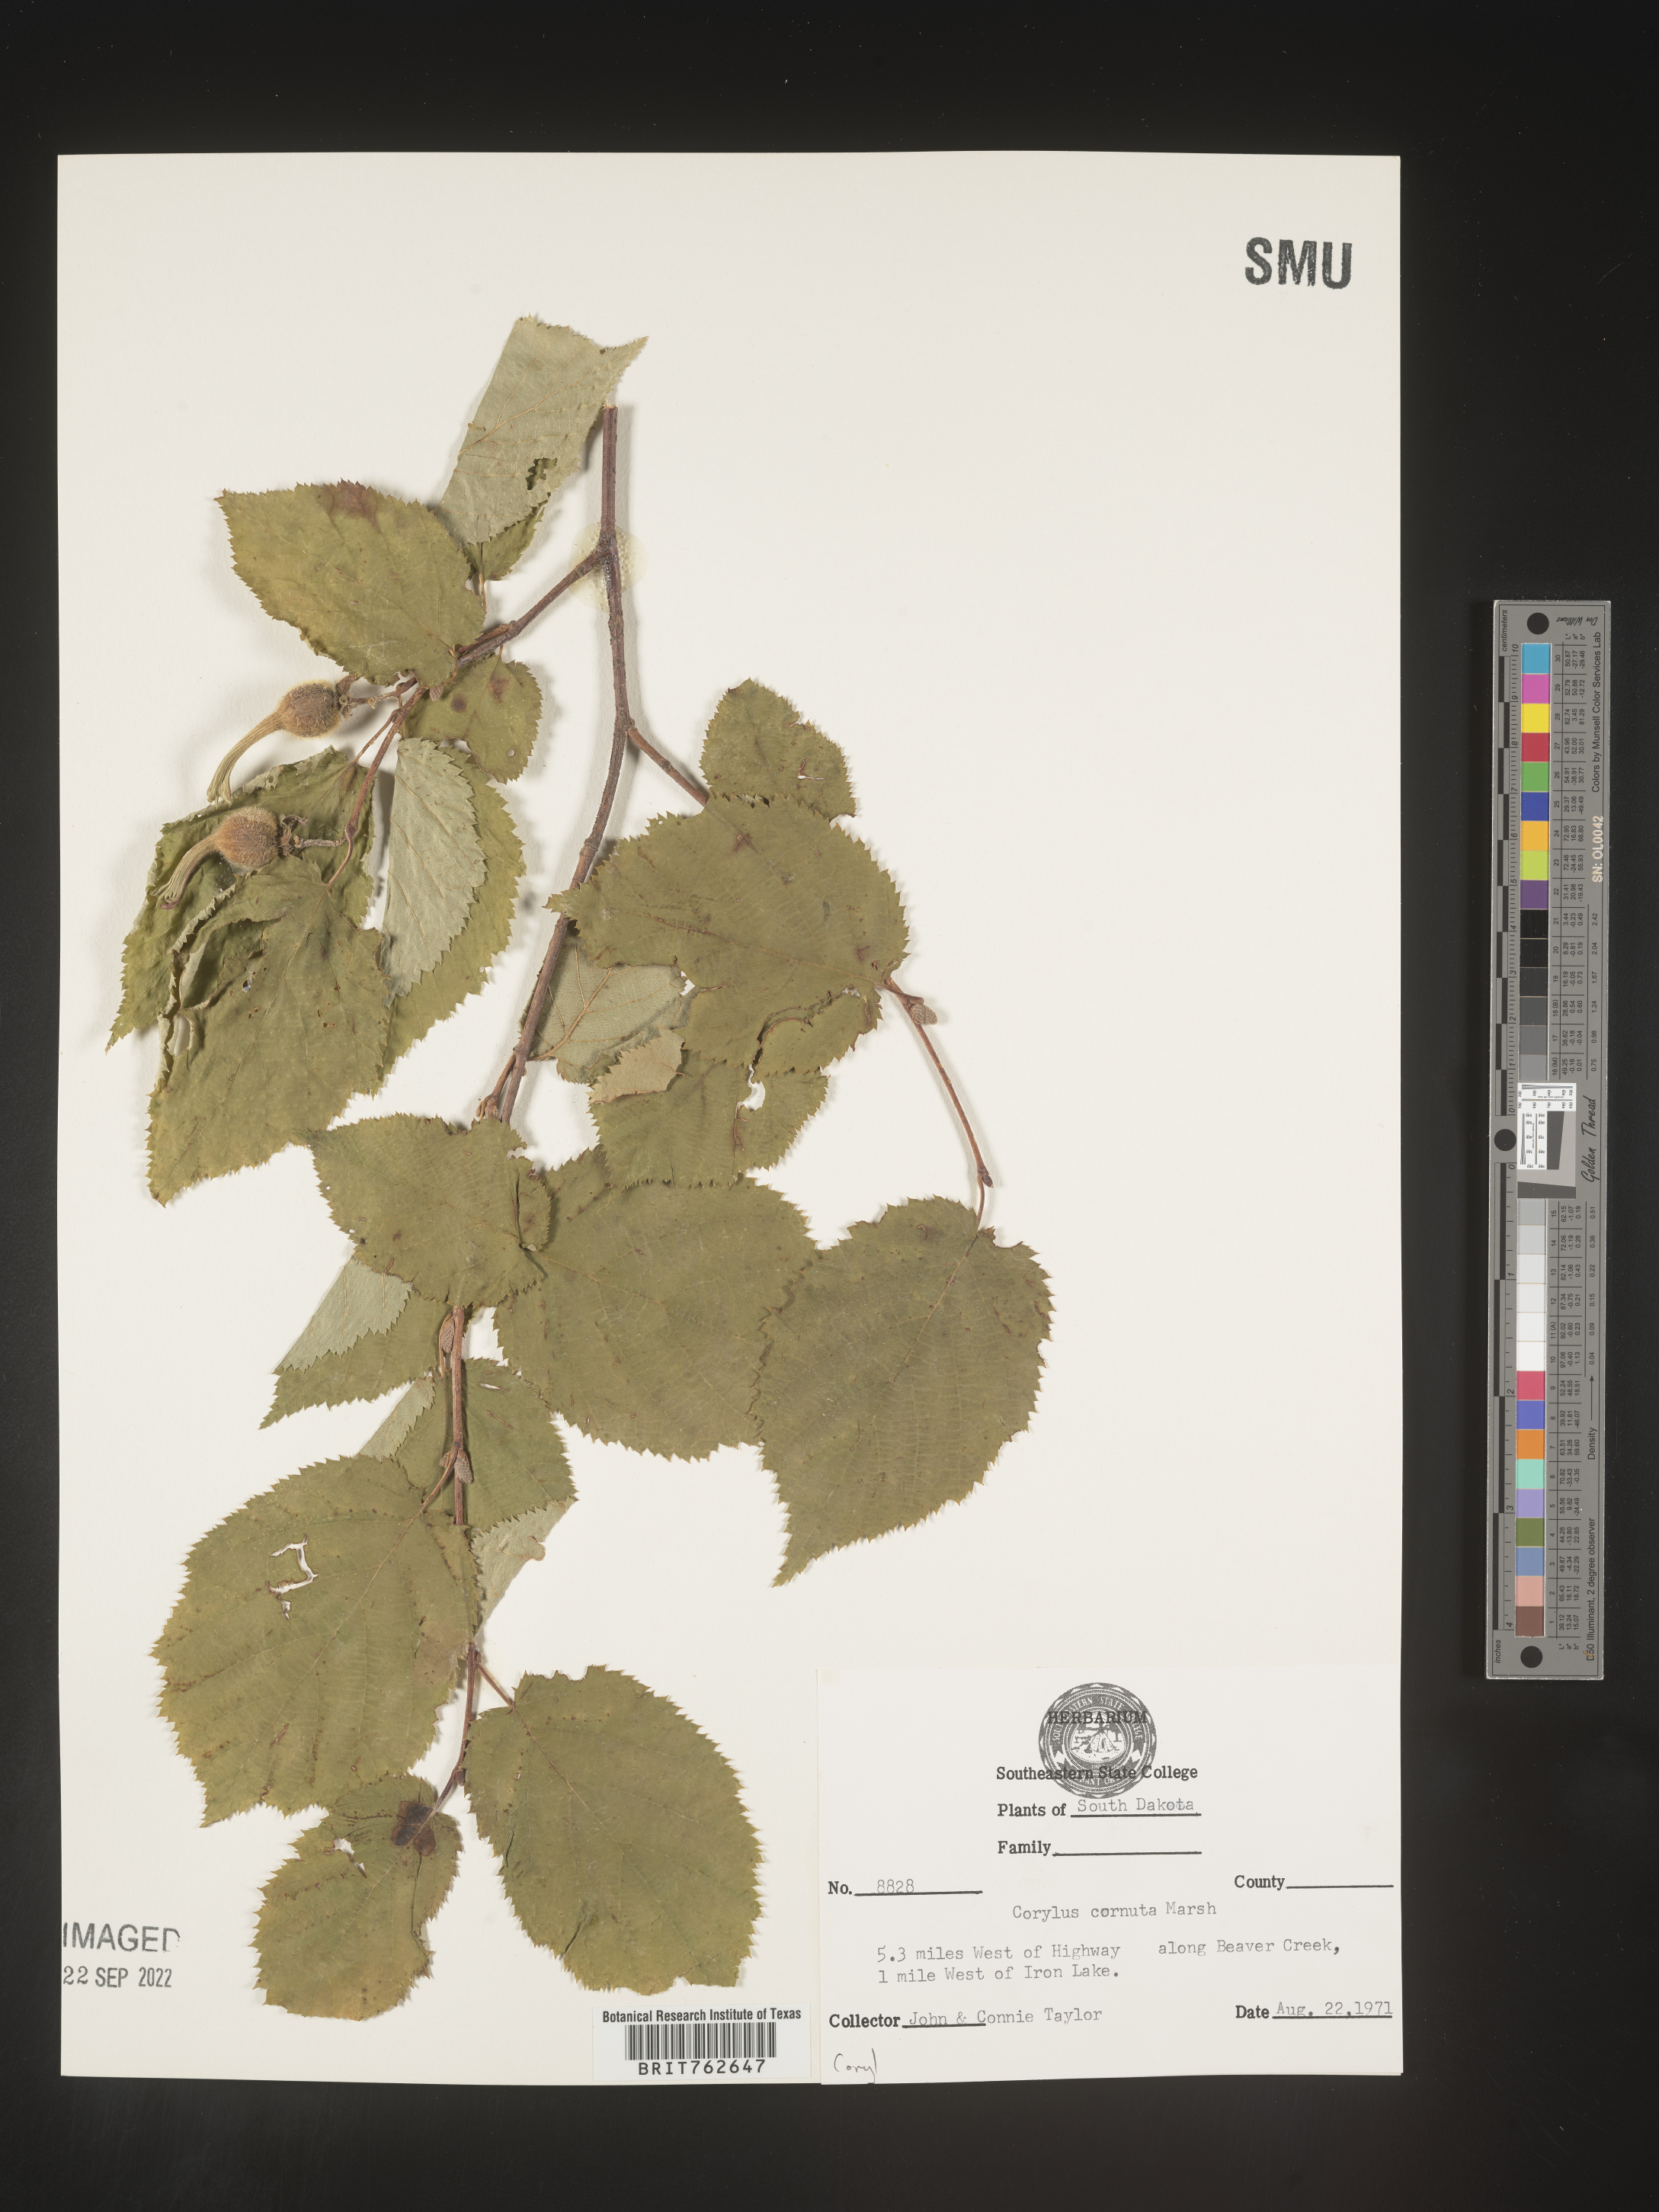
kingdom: Plantae
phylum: Tracheophyta
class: Magnoliopsida
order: Fagales
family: Betulaceae
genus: Corylus
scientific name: Corylus cornuta
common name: Beaked hazel
